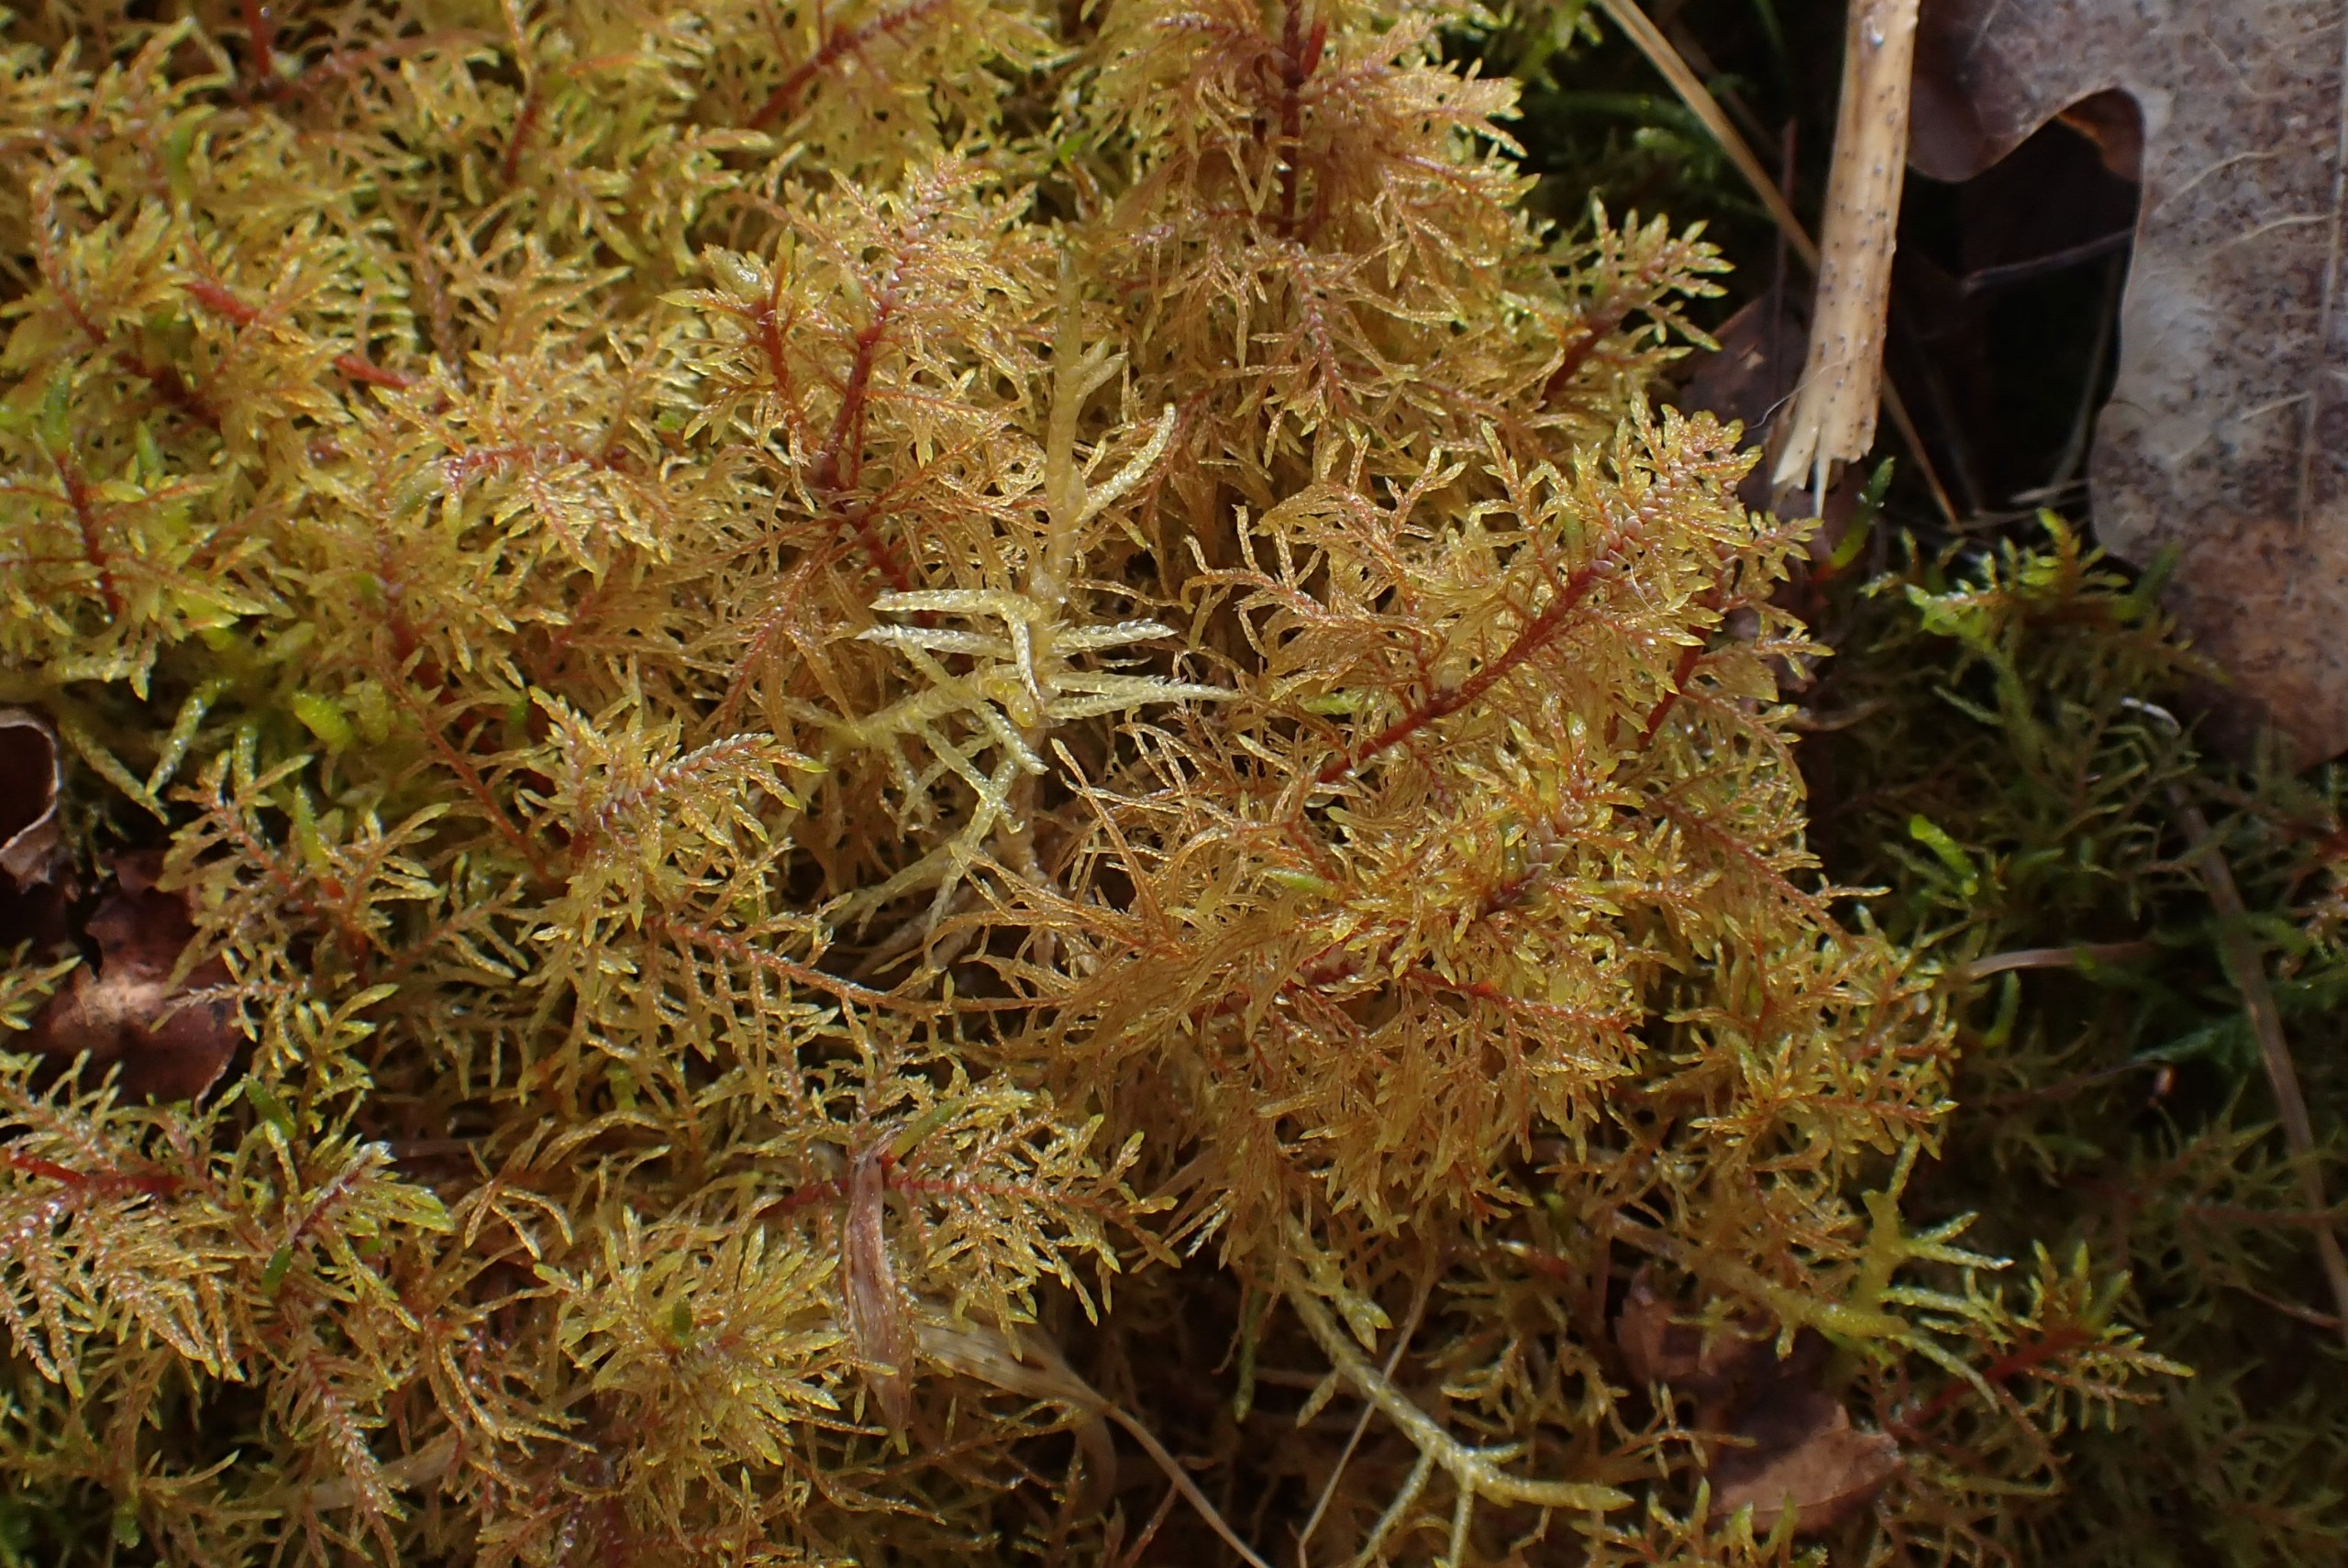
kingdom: Plantae
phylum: Bryophyta
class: Bryopsida
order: Hypnales
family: Hylocomiaceae
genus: Hylocomium
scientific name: Hylocomium splendens
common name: Almindelig etagemos
